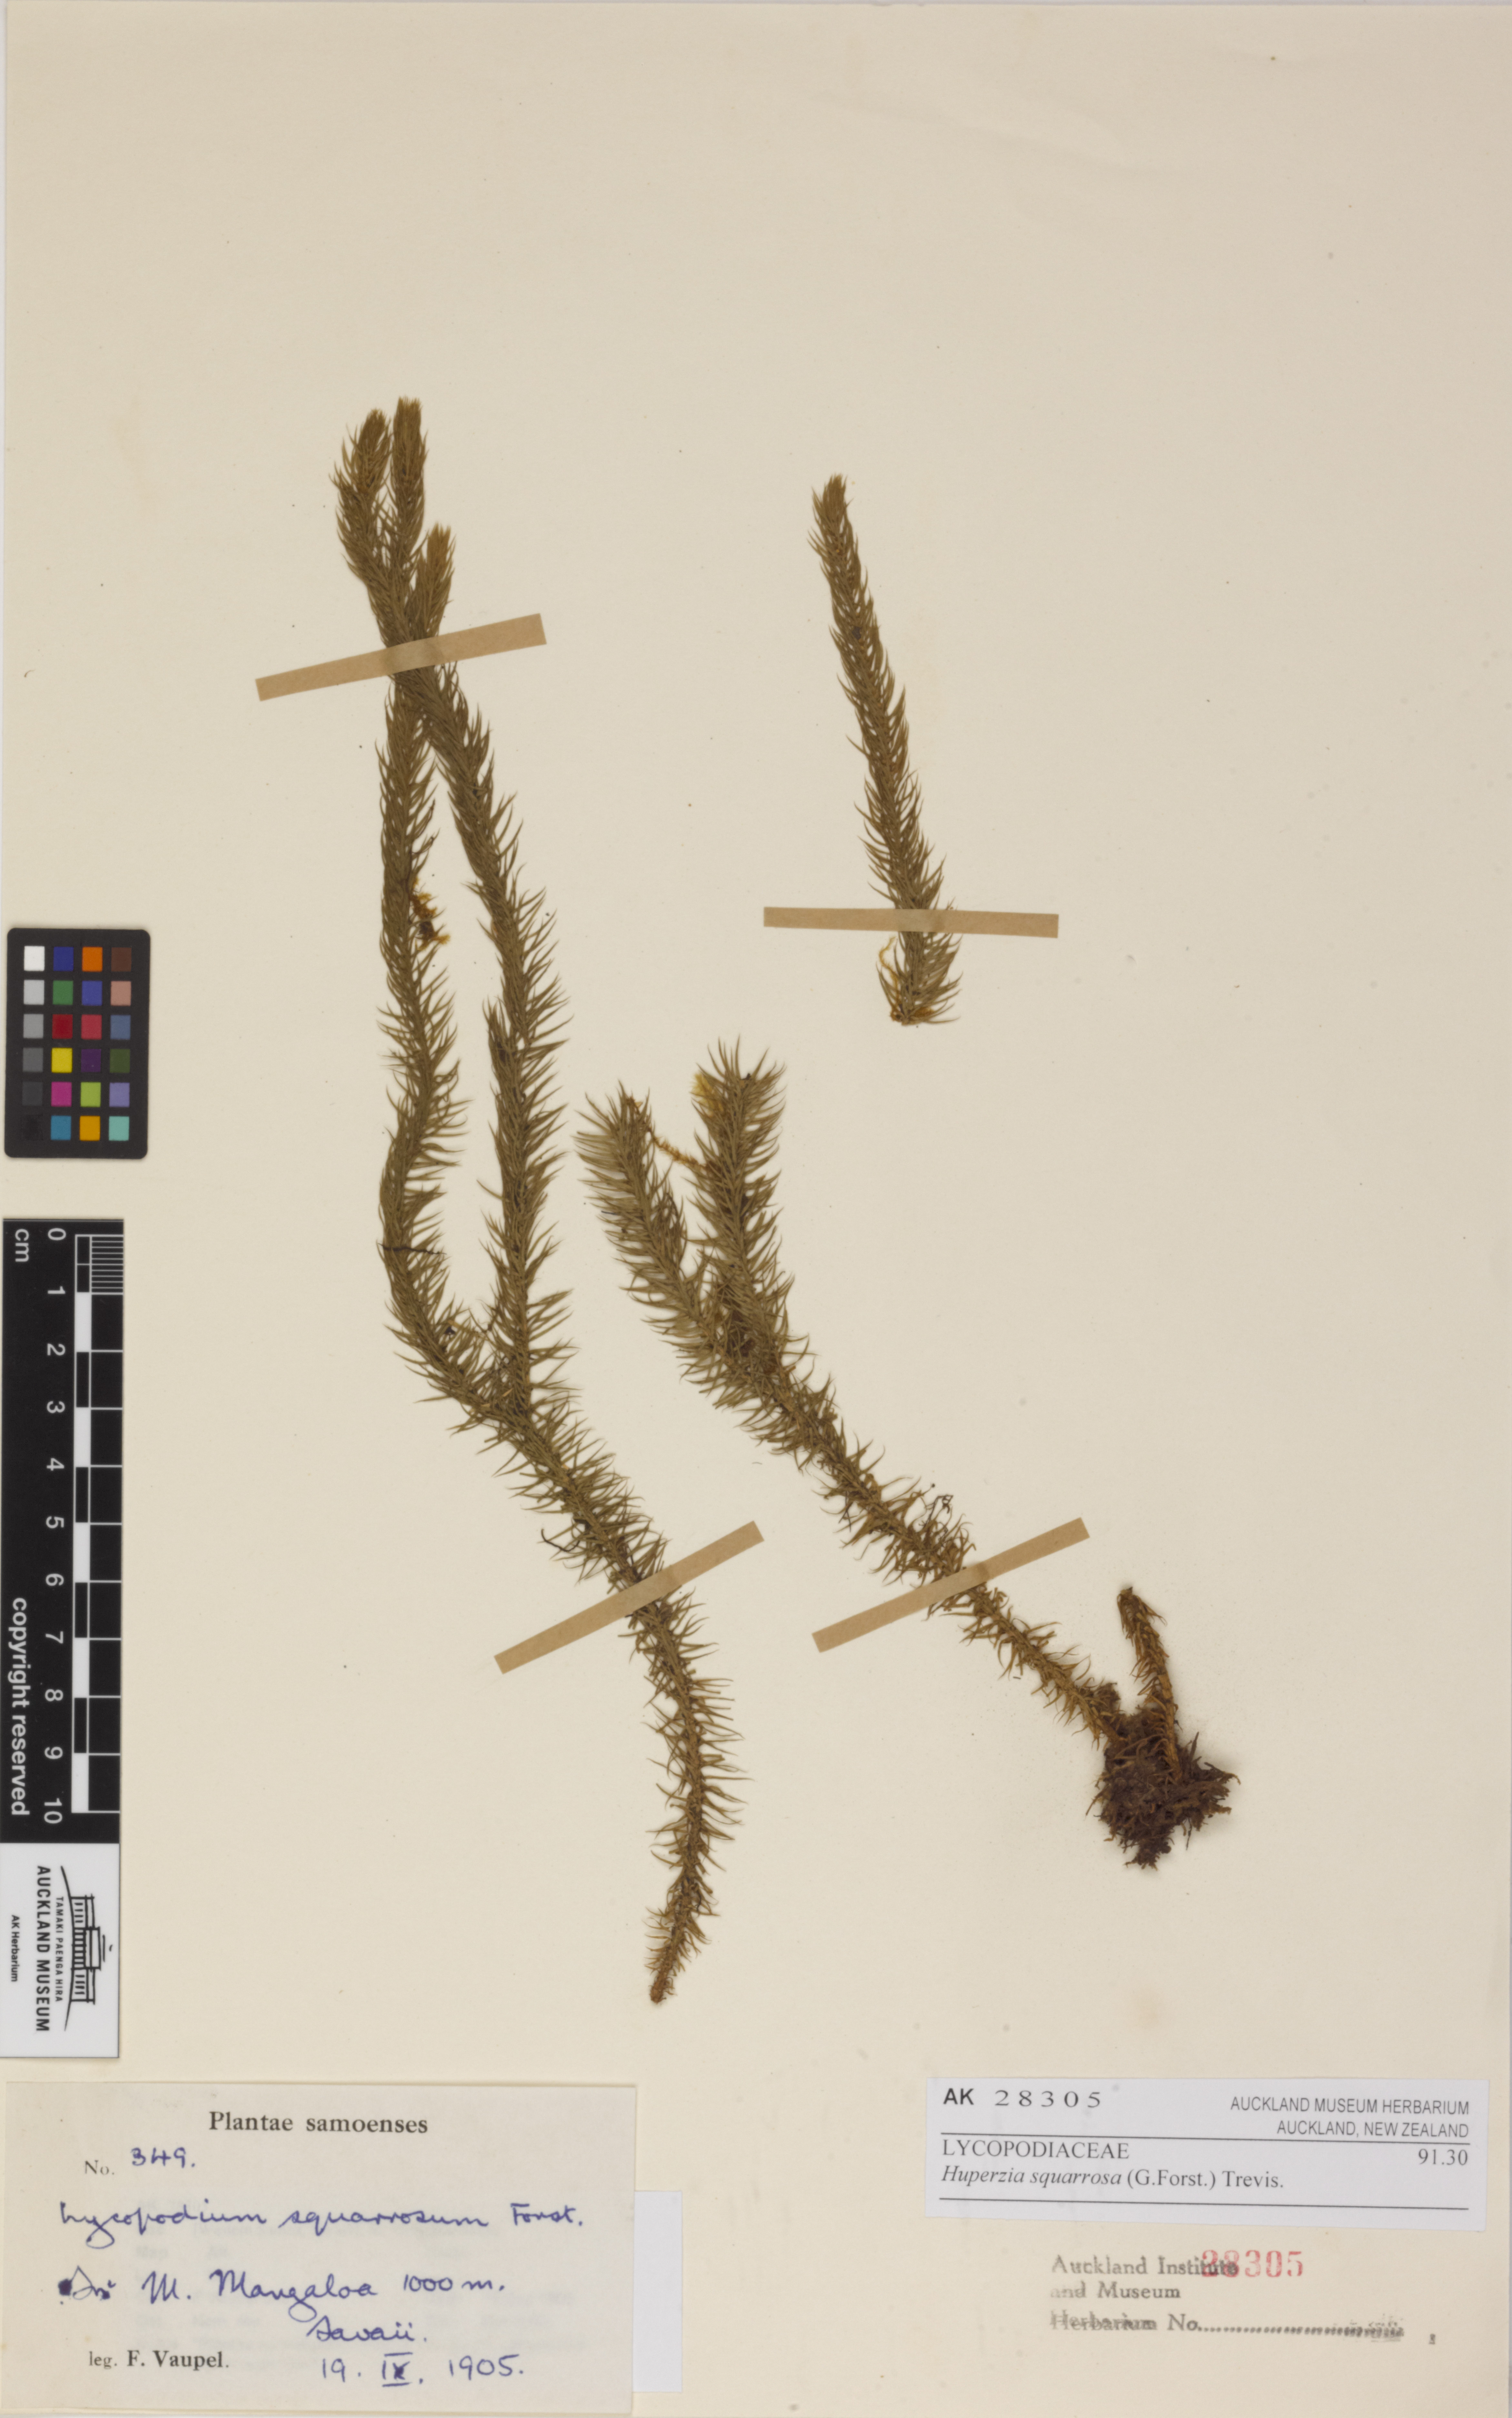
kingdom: Plantae
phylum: Tracheophyta
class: Lycopodiopsida
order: Lycopodiales
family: Lycopodiaceae
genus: Phlegmariurus
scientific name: Phlegmariurus squarrosus
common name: Rock tassel-fern
